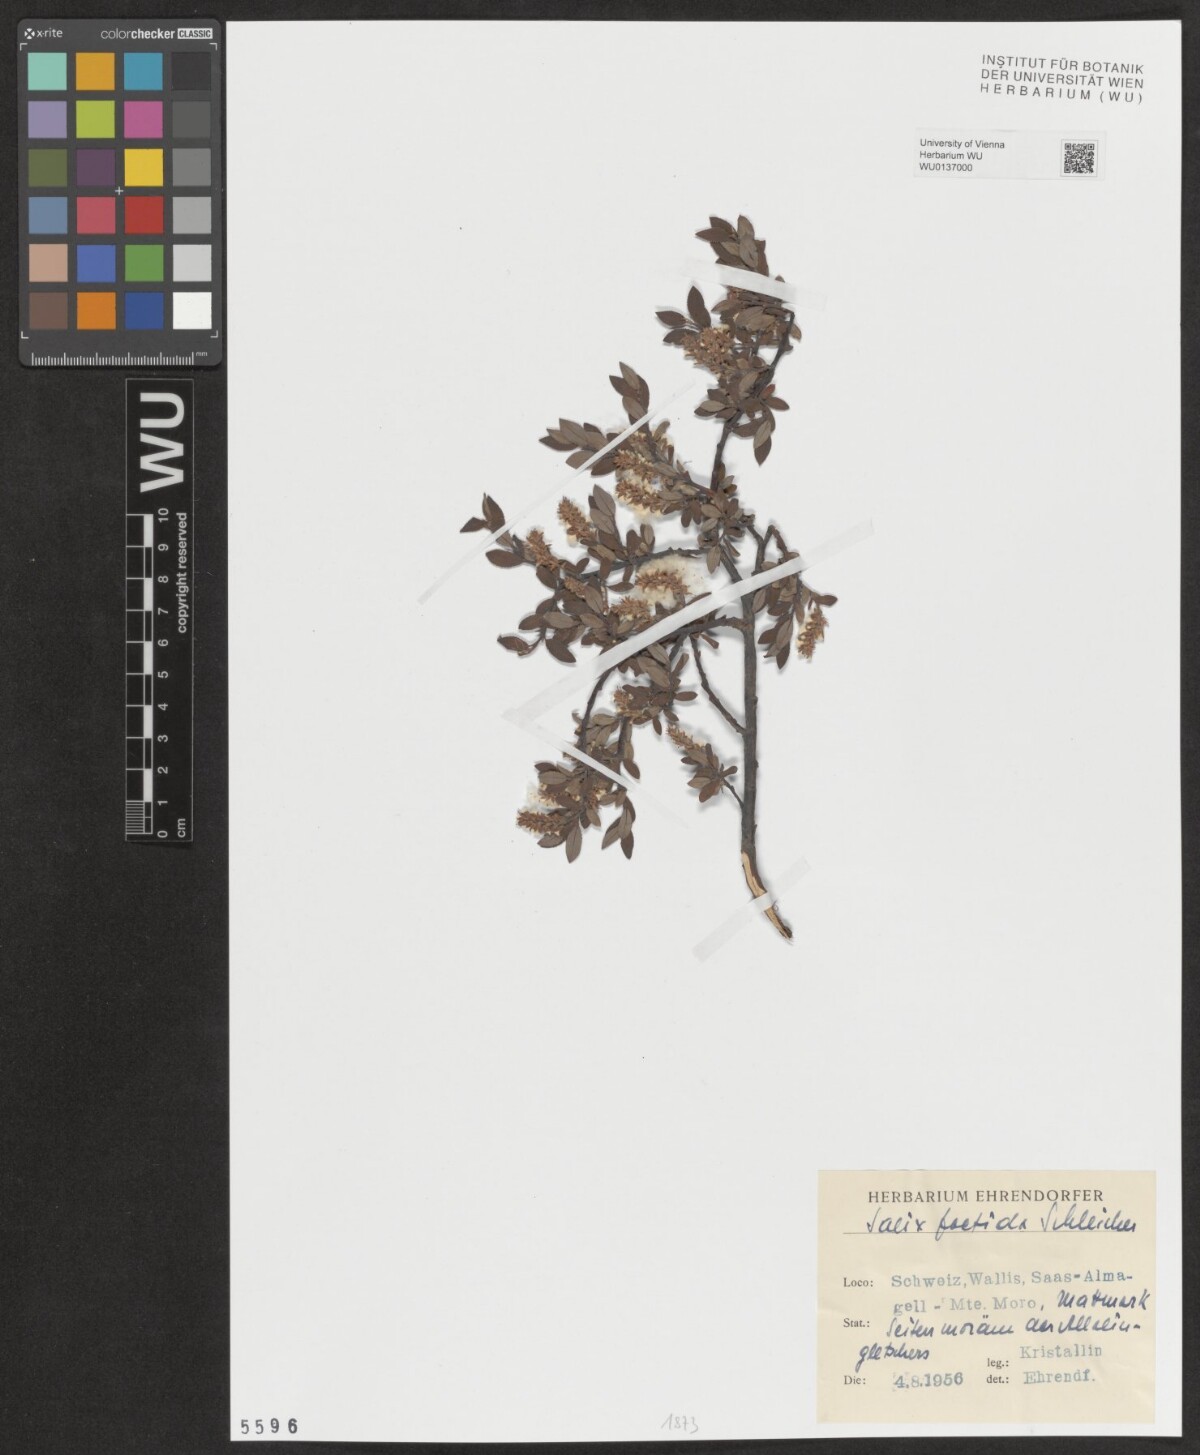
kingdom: Plantae
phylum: Tracheophyta
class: Magnoliopsida
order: Malpighiales
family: Salicaceae
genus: Salix
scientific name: Salix foetida
